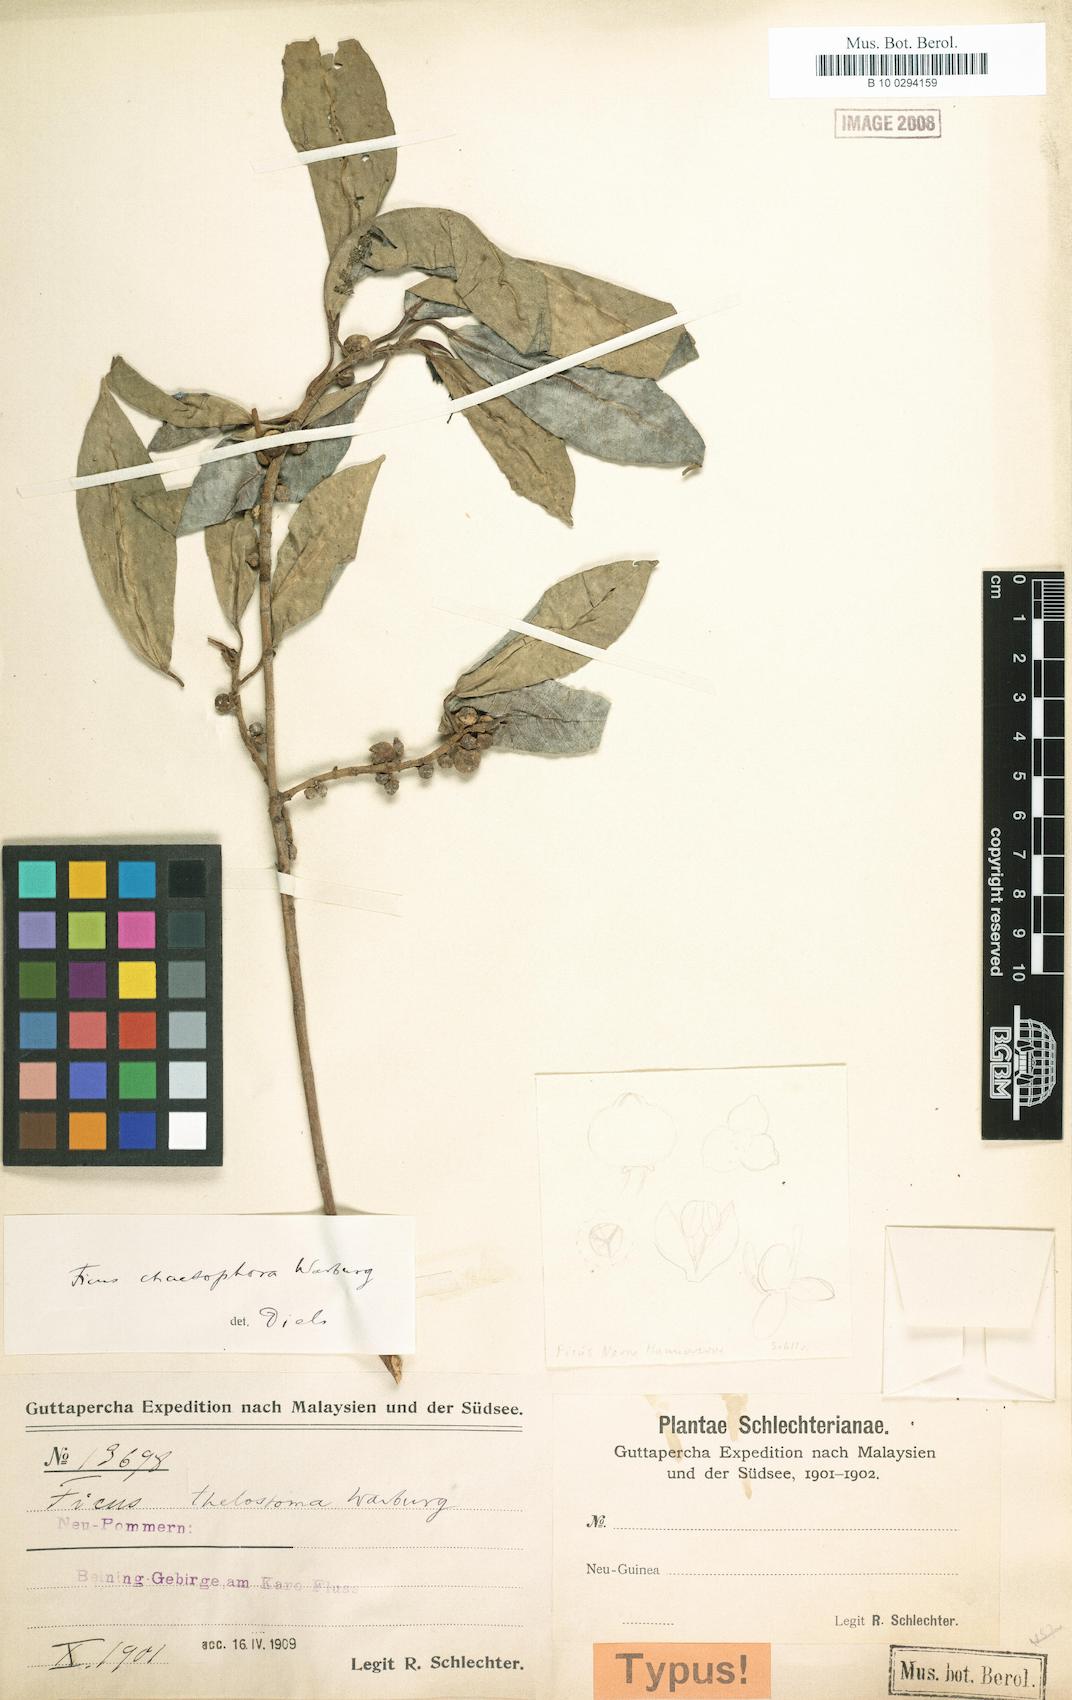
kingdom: Plantae
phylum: Tracheophyta
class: Magnoliopsida
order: Rosales
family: Moraceae
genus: Ficus
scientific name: Ficus adenosperma
